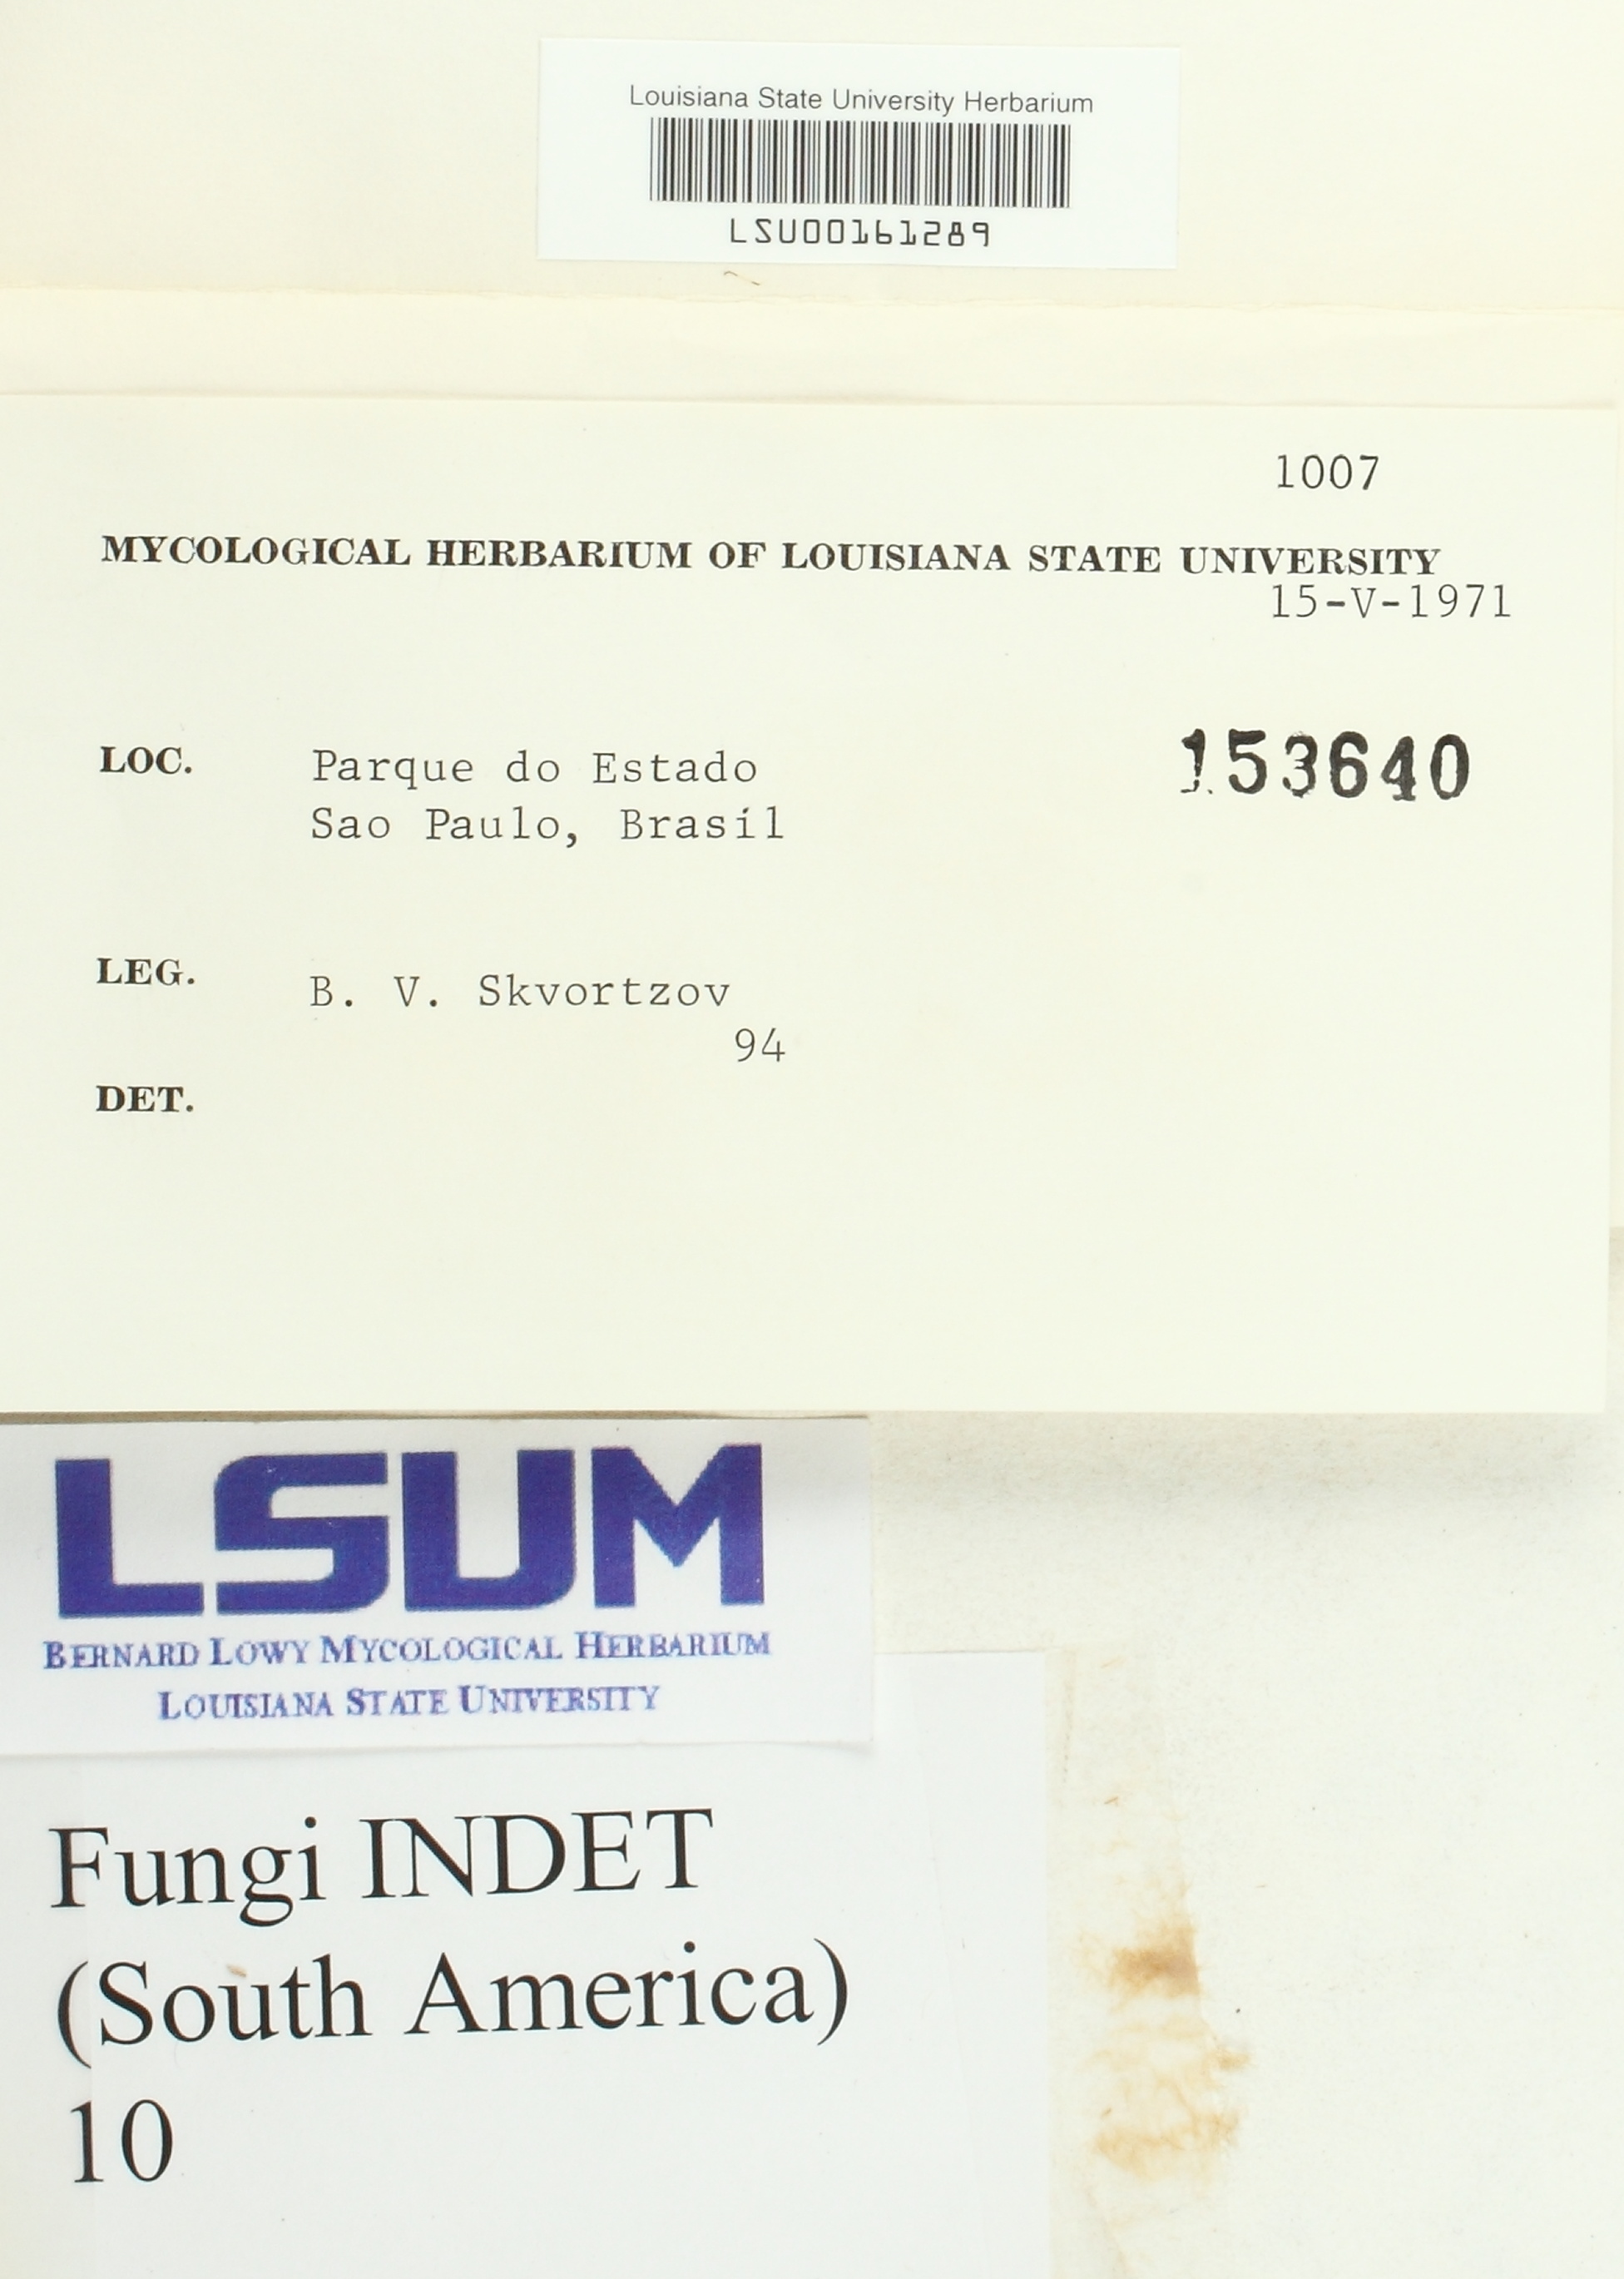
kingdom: Fungi
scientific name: Fungi
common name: Fungi
